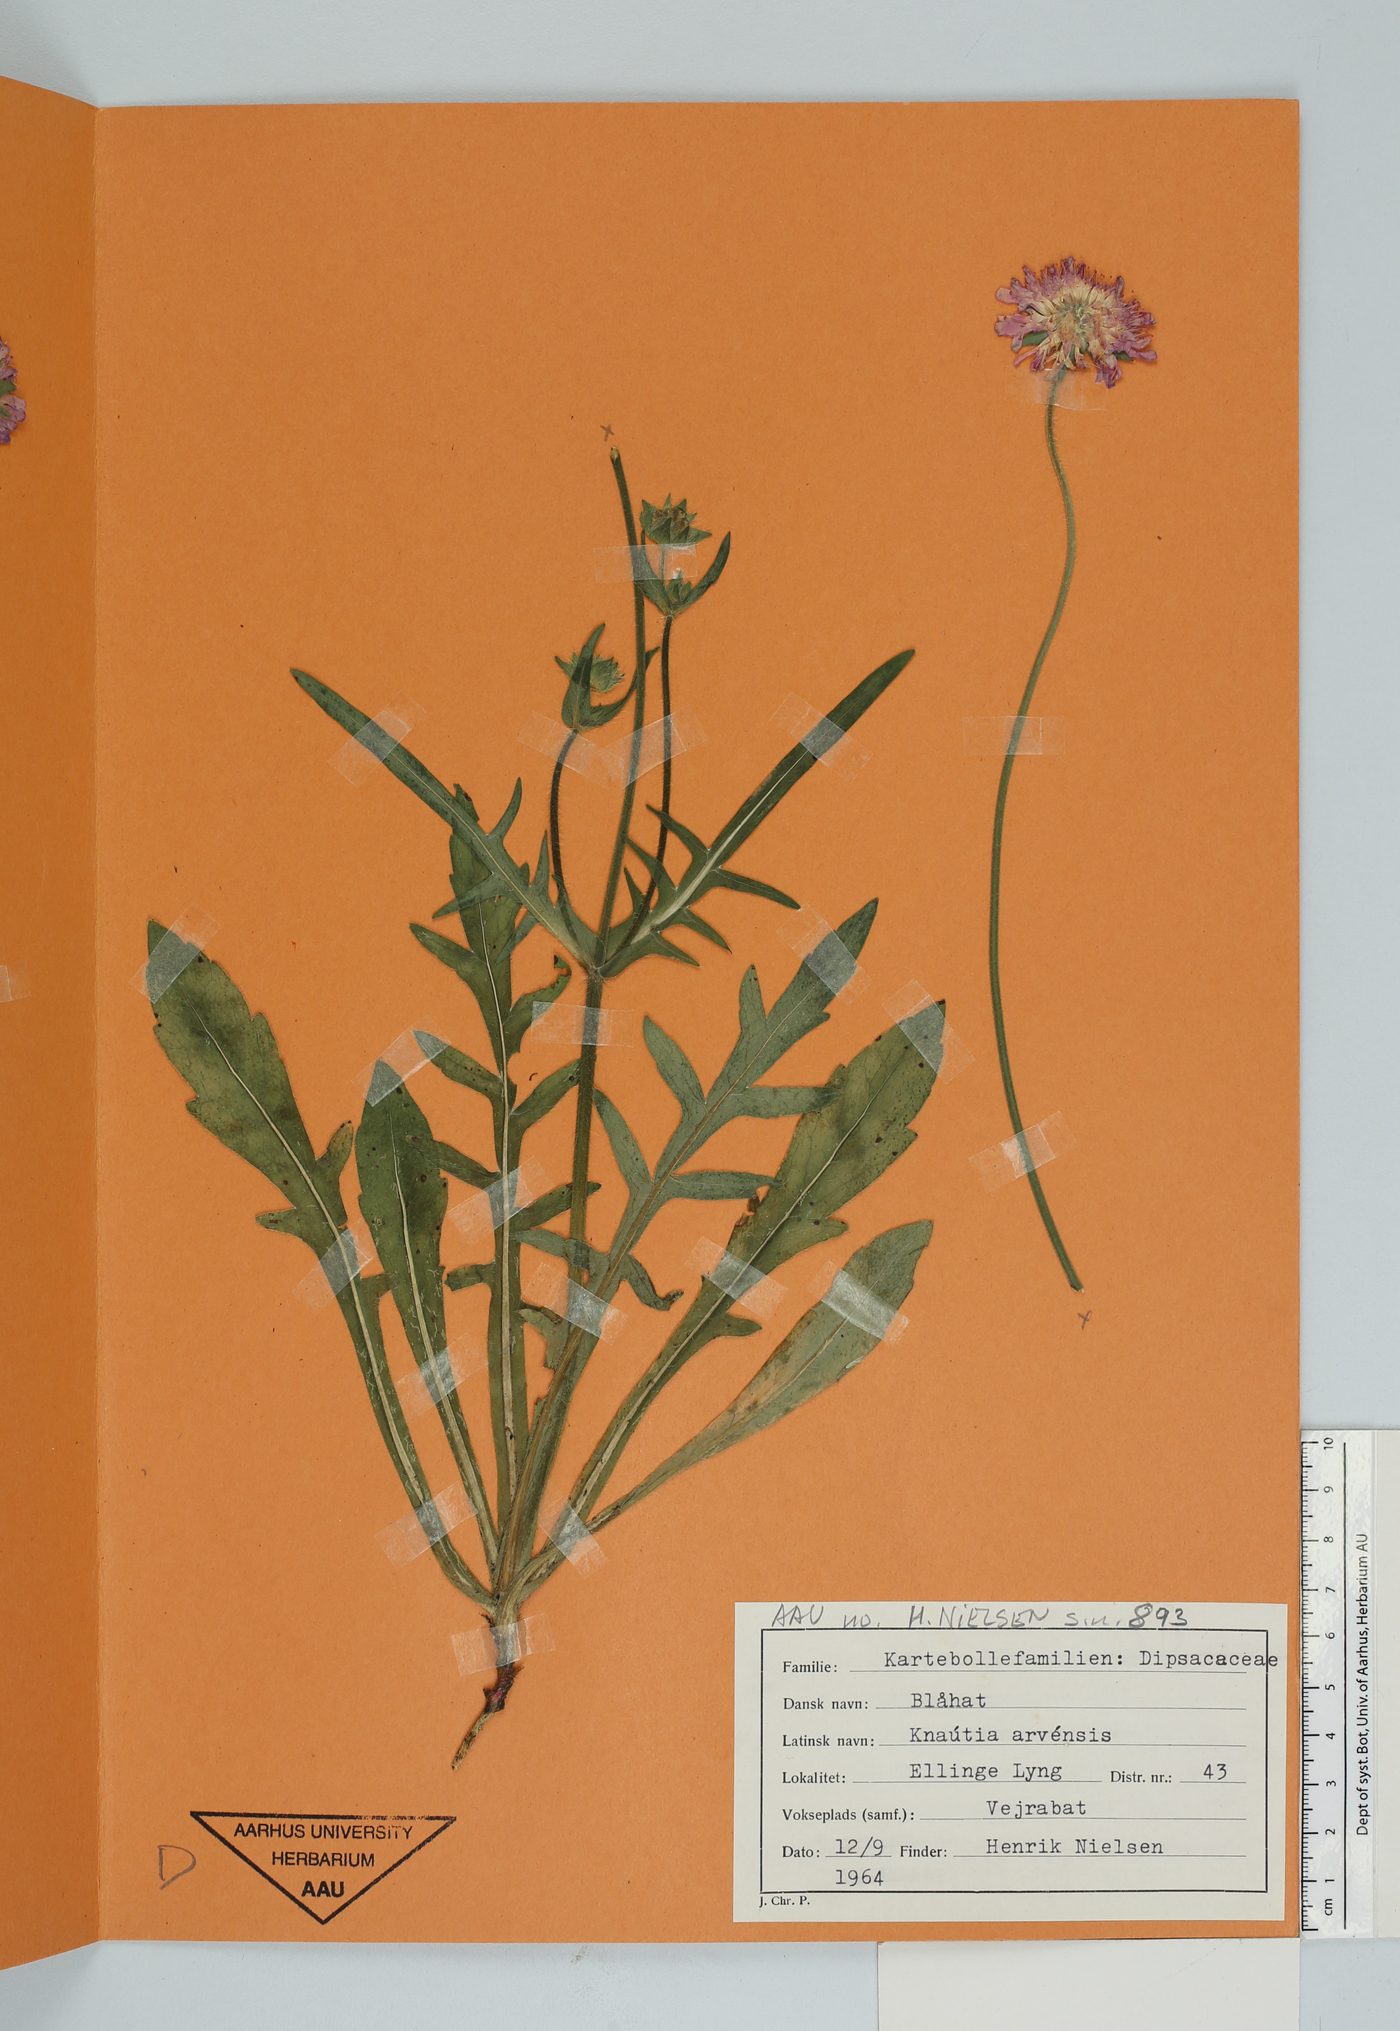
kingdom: Plantae
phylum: Tracheophyta
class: Magnoliopsida
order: Dipsacales
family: Caprifoliaceae
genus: Knautia
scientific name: Knautia arvensis
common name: Field scabiosa
